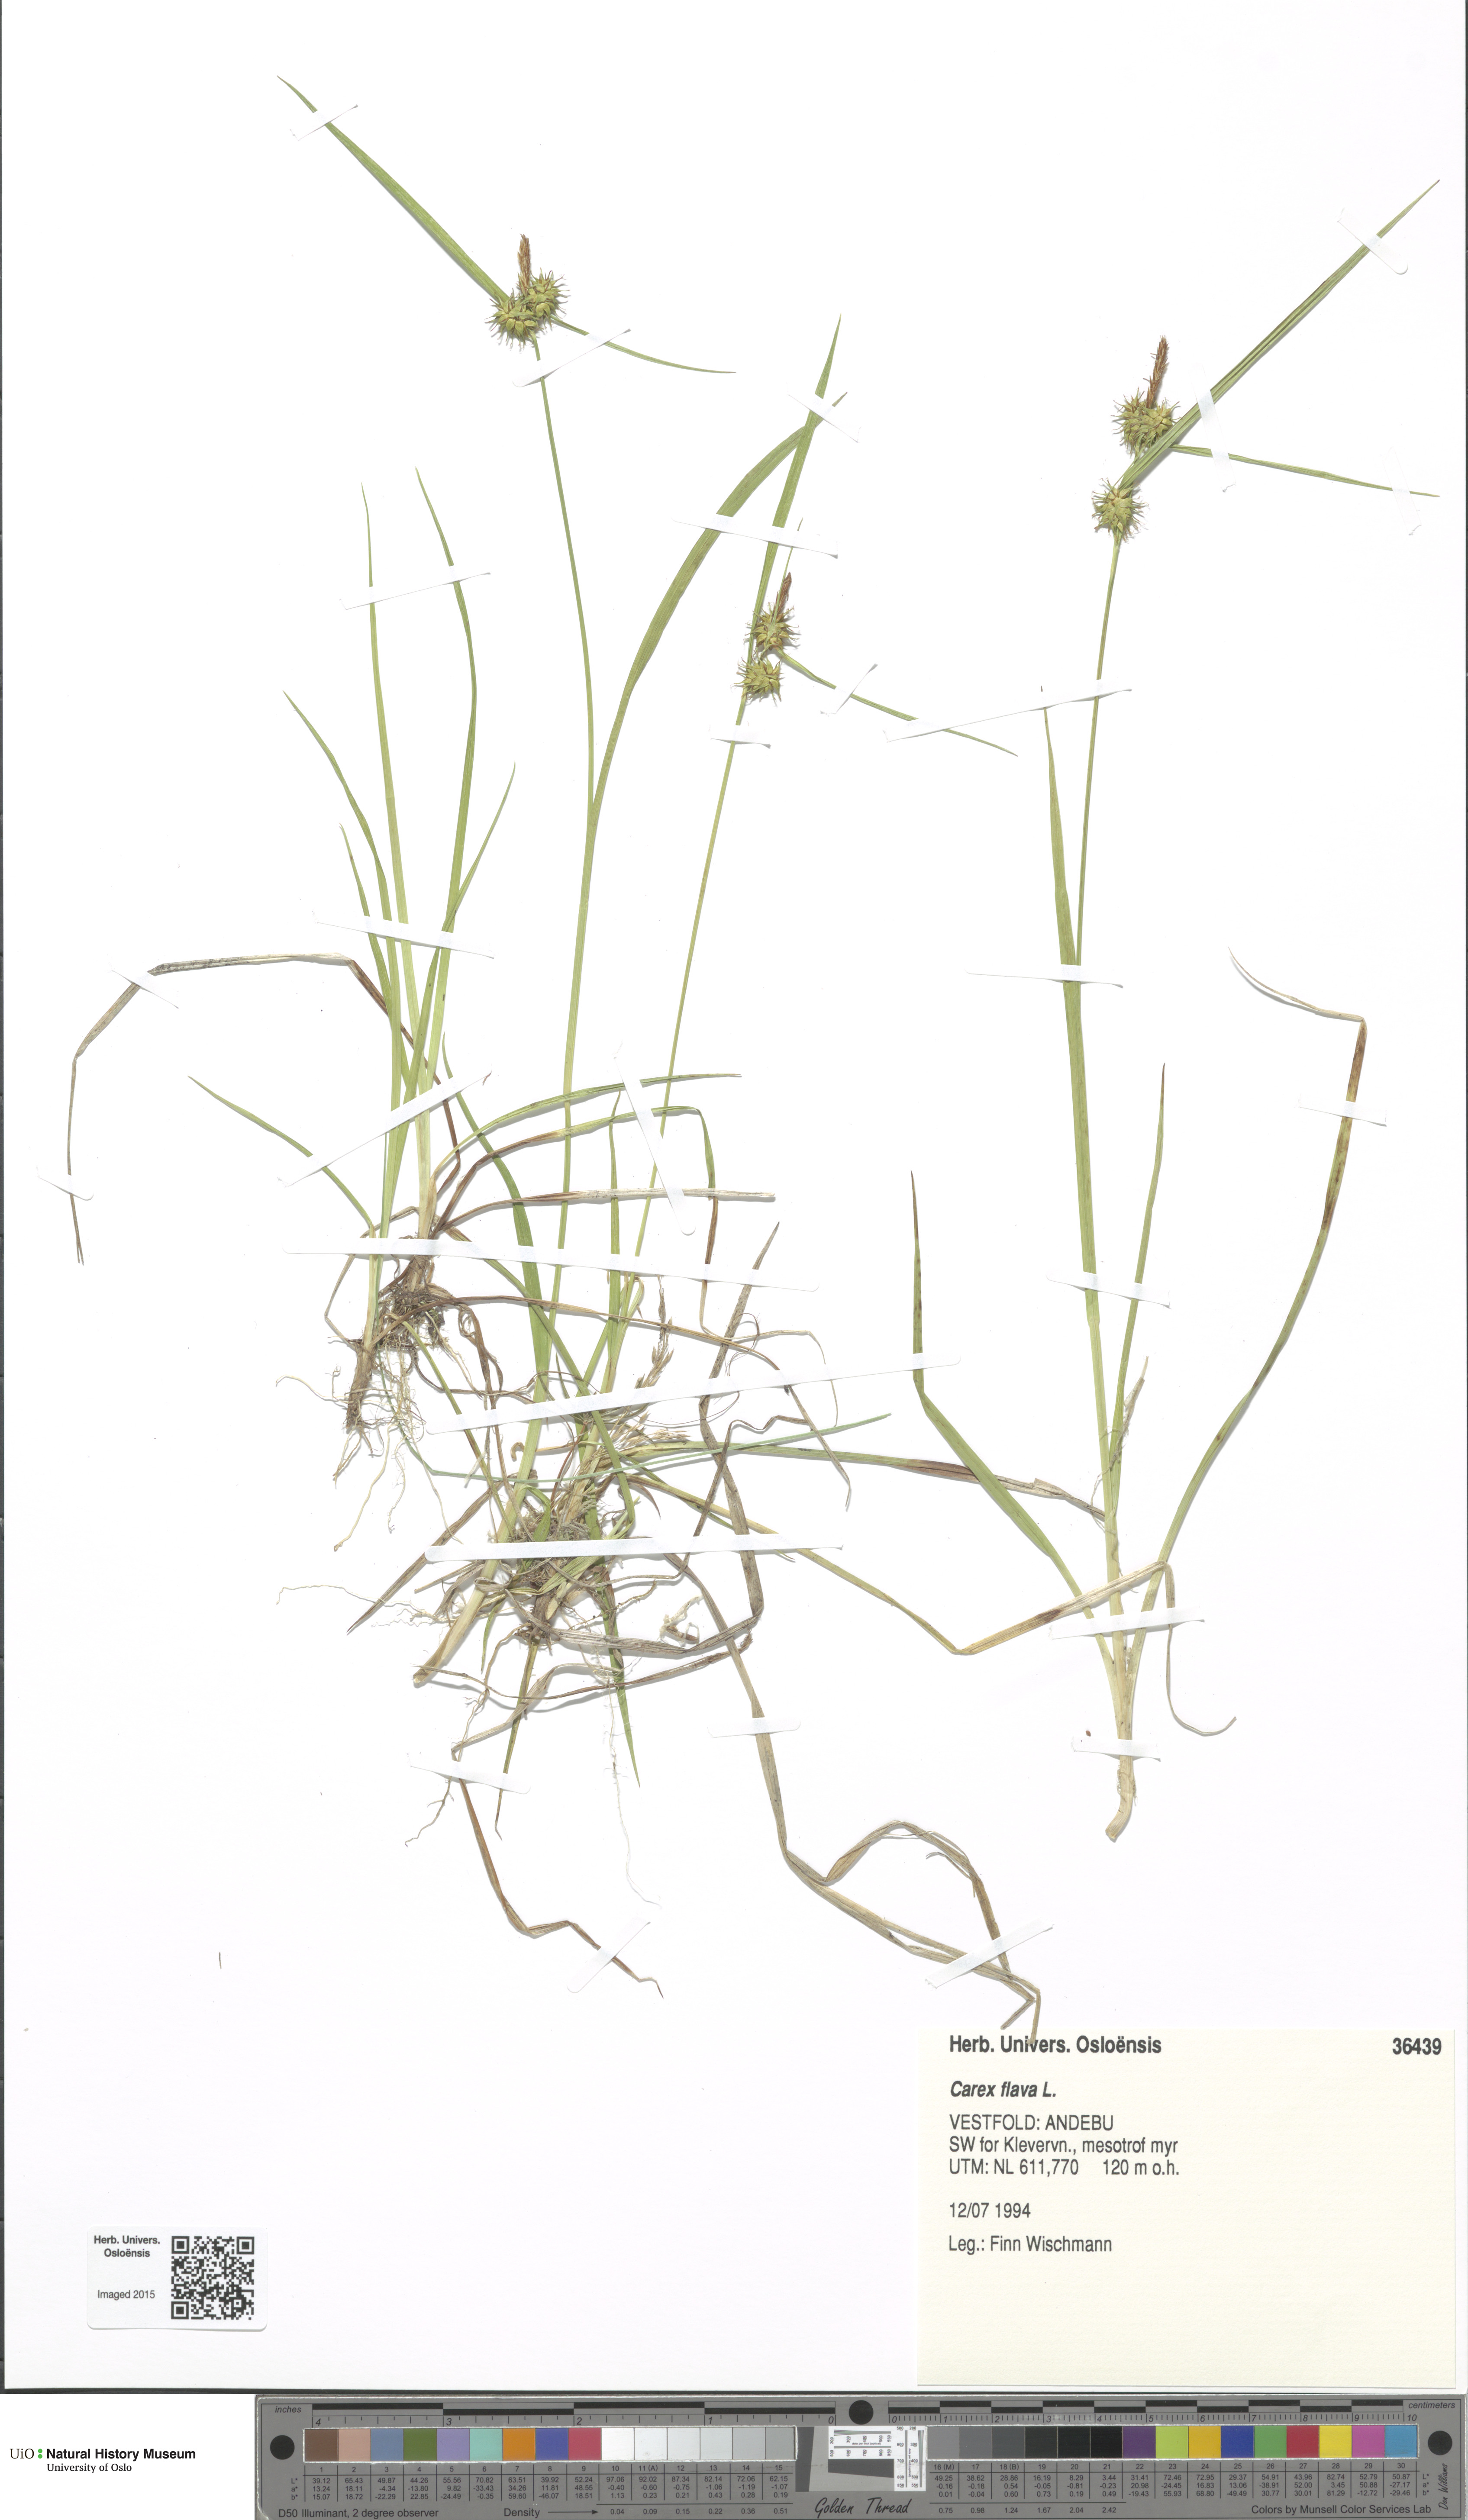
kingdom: Plantae
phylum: Tracheophyta
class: Liliopsida
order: Poales
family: Cyperaceae
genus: Carex
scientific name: Carex flava
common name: Large yellow-sedge
